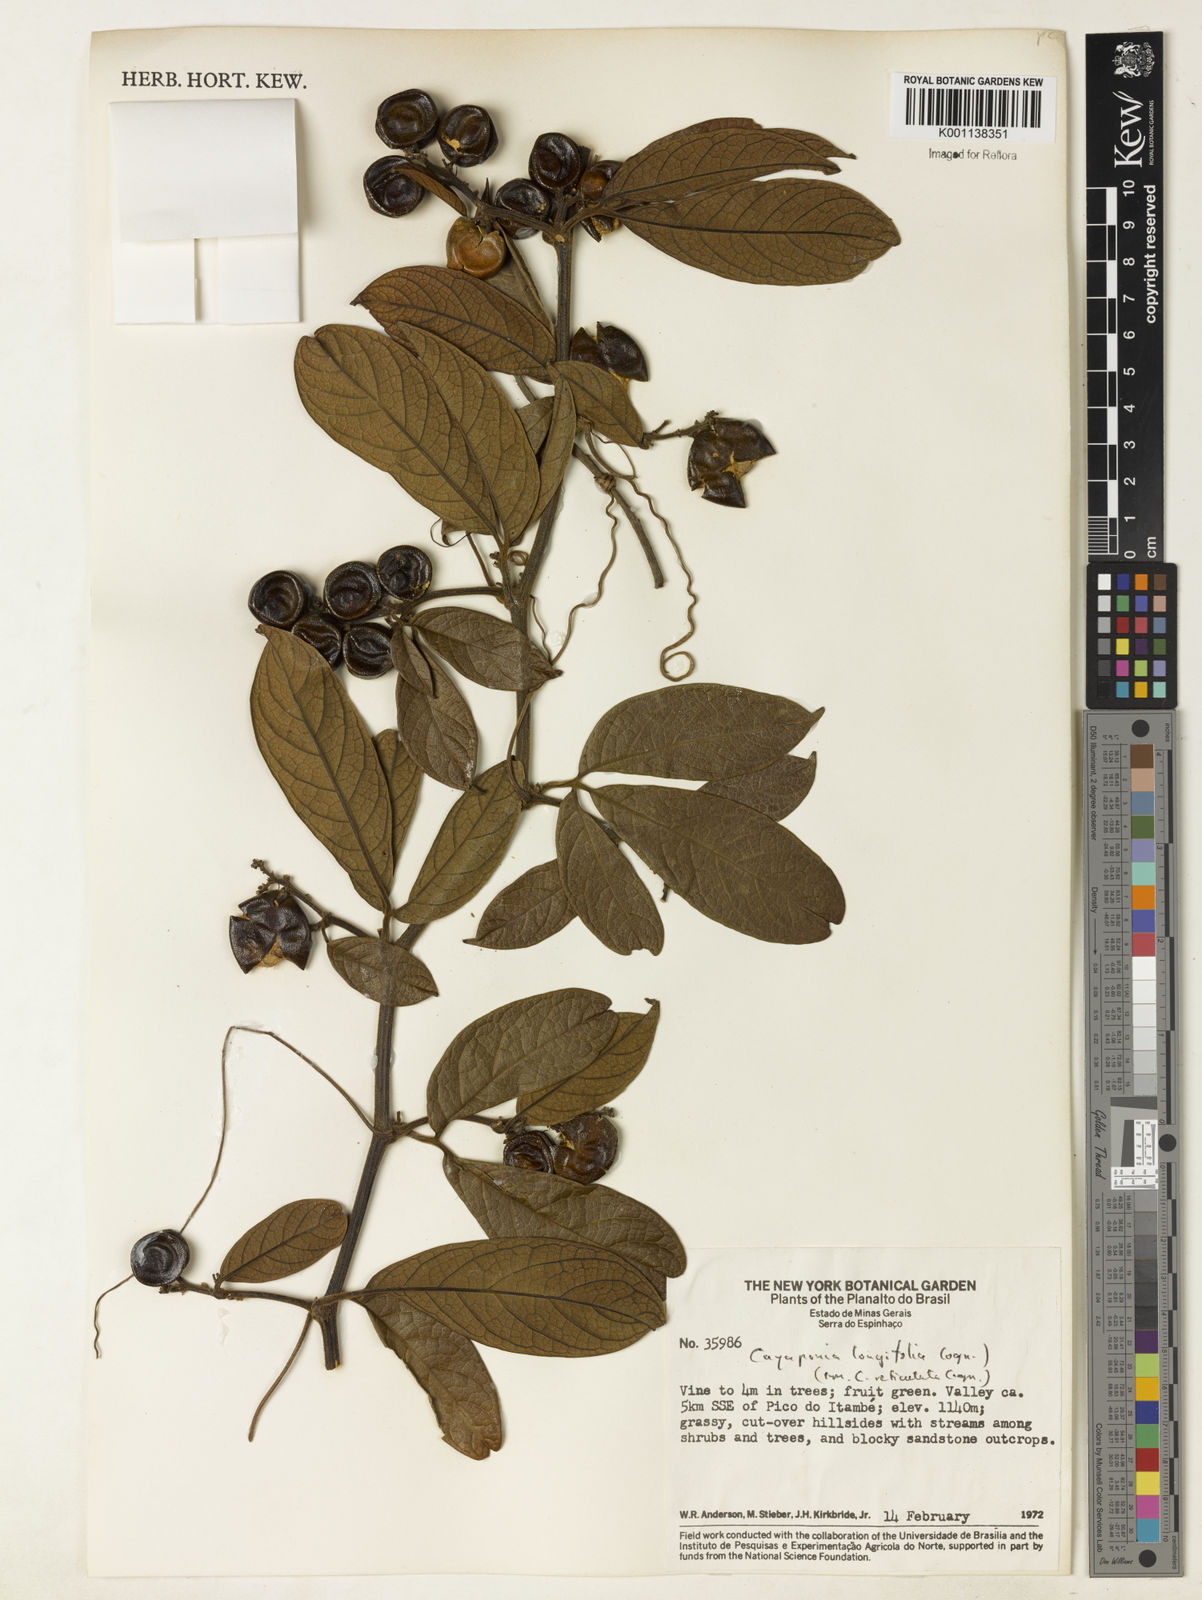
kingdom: Plantae
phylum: Tracheophyta
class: Magnoliopsida
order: Cucurbitales
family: Cucurbitaceae
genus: Cayaponia
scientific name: Cayaponia longifolia
